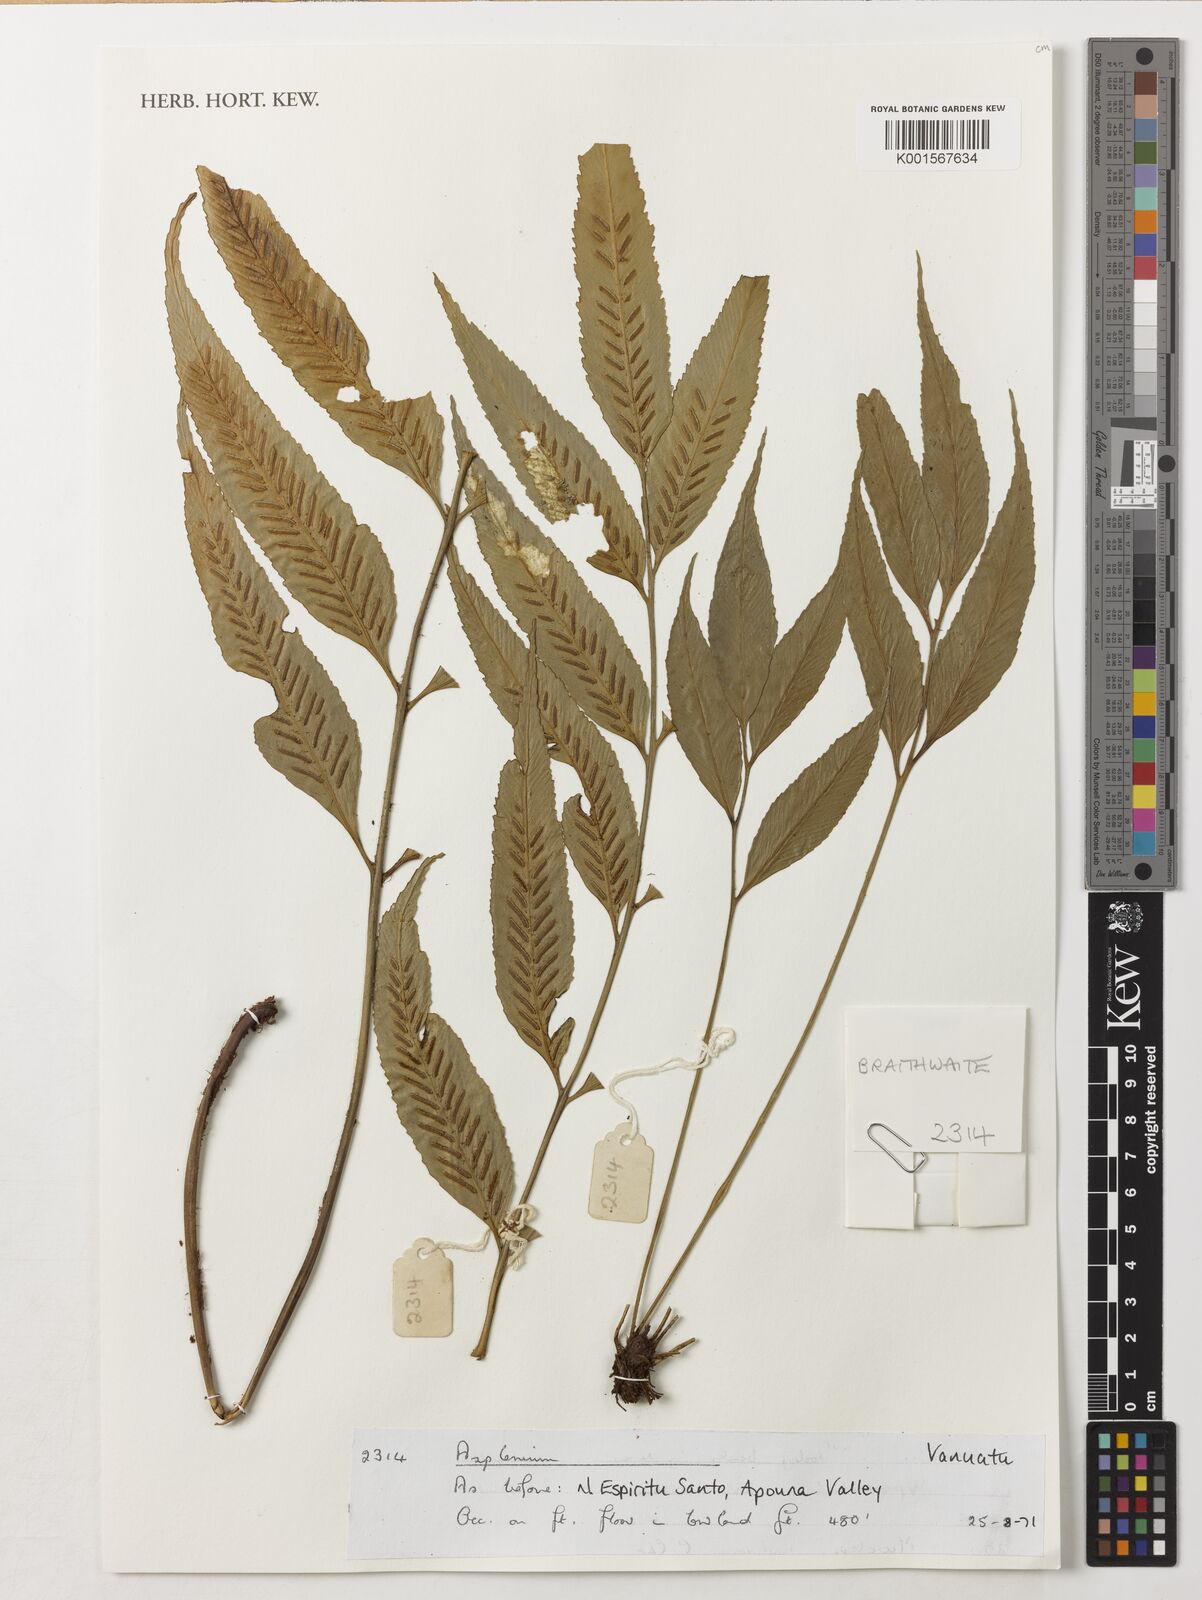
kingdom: Plantae
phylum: Tracheophyta
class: Polypodiopsida
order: Polypodiales
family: Aspleniaceae
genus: Asplenium
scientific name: Asplenium
